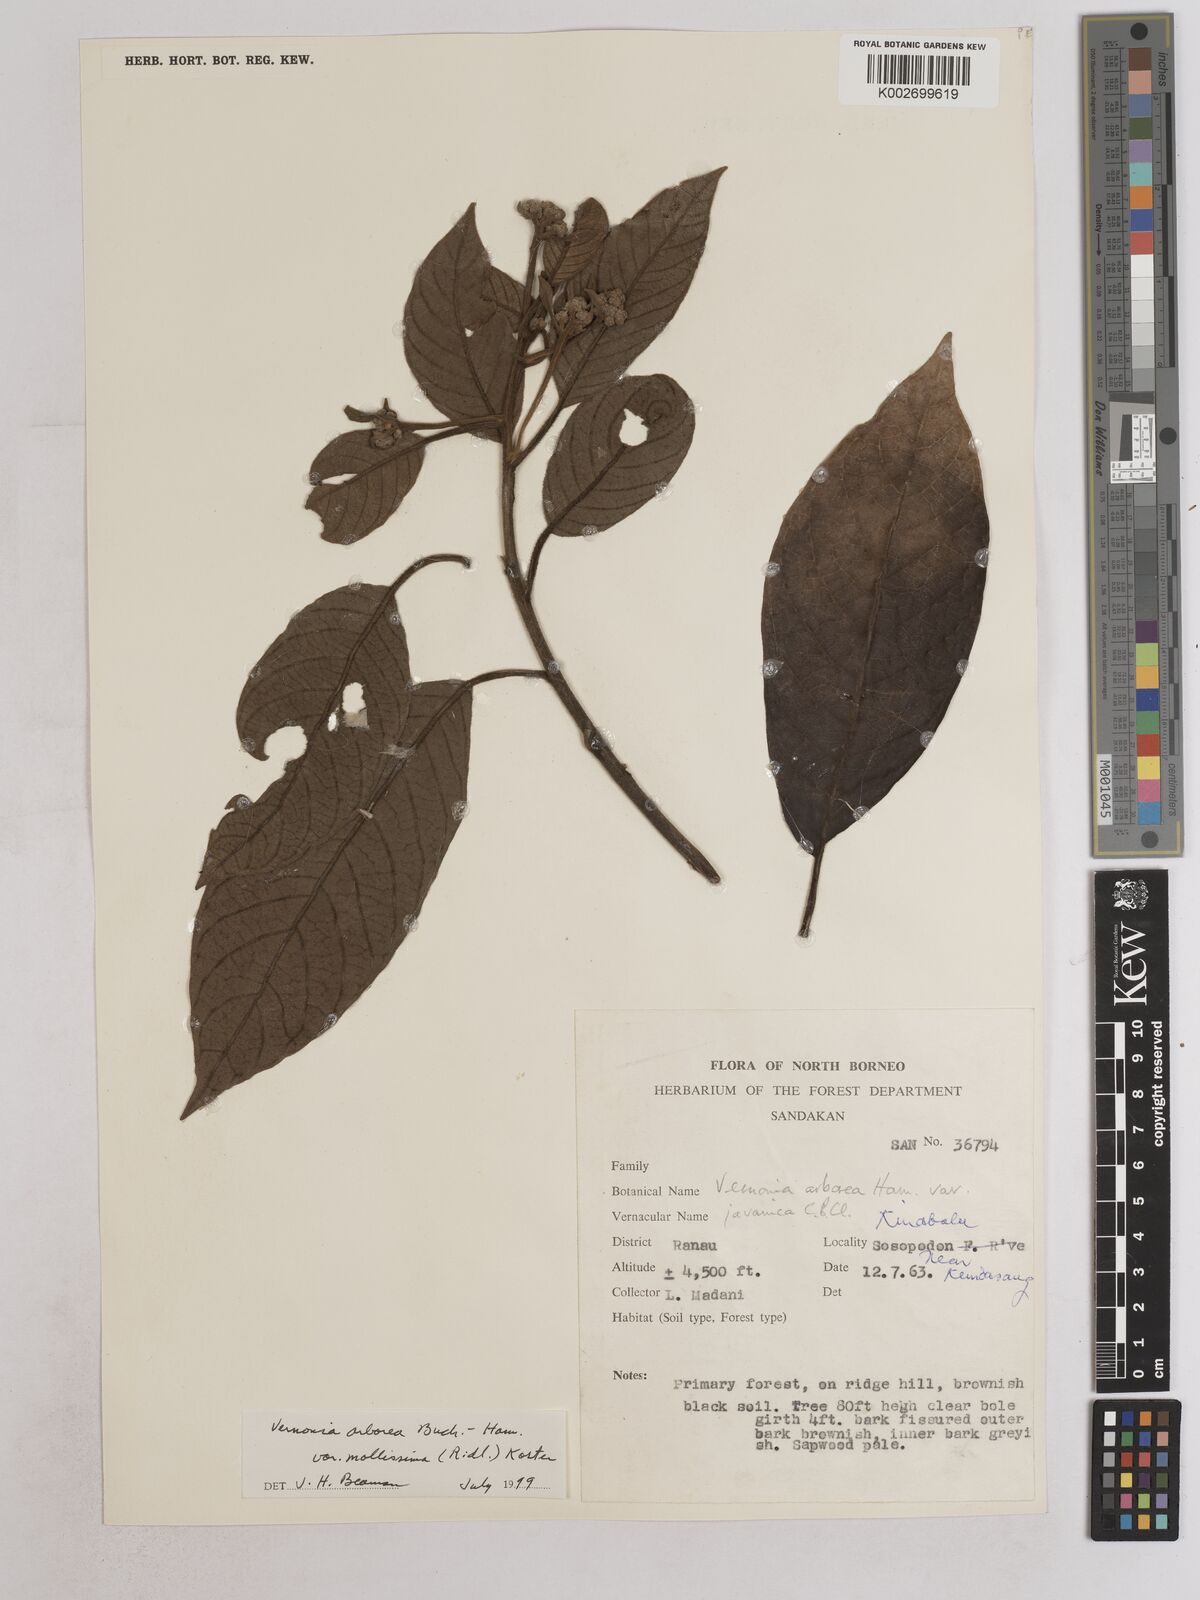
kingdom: Plantae
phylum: Tracheophyta
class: Magnoliopsida
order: Asterales
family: Asteraceae
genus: Strobocalyx
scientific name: Strobocalyx arborea
